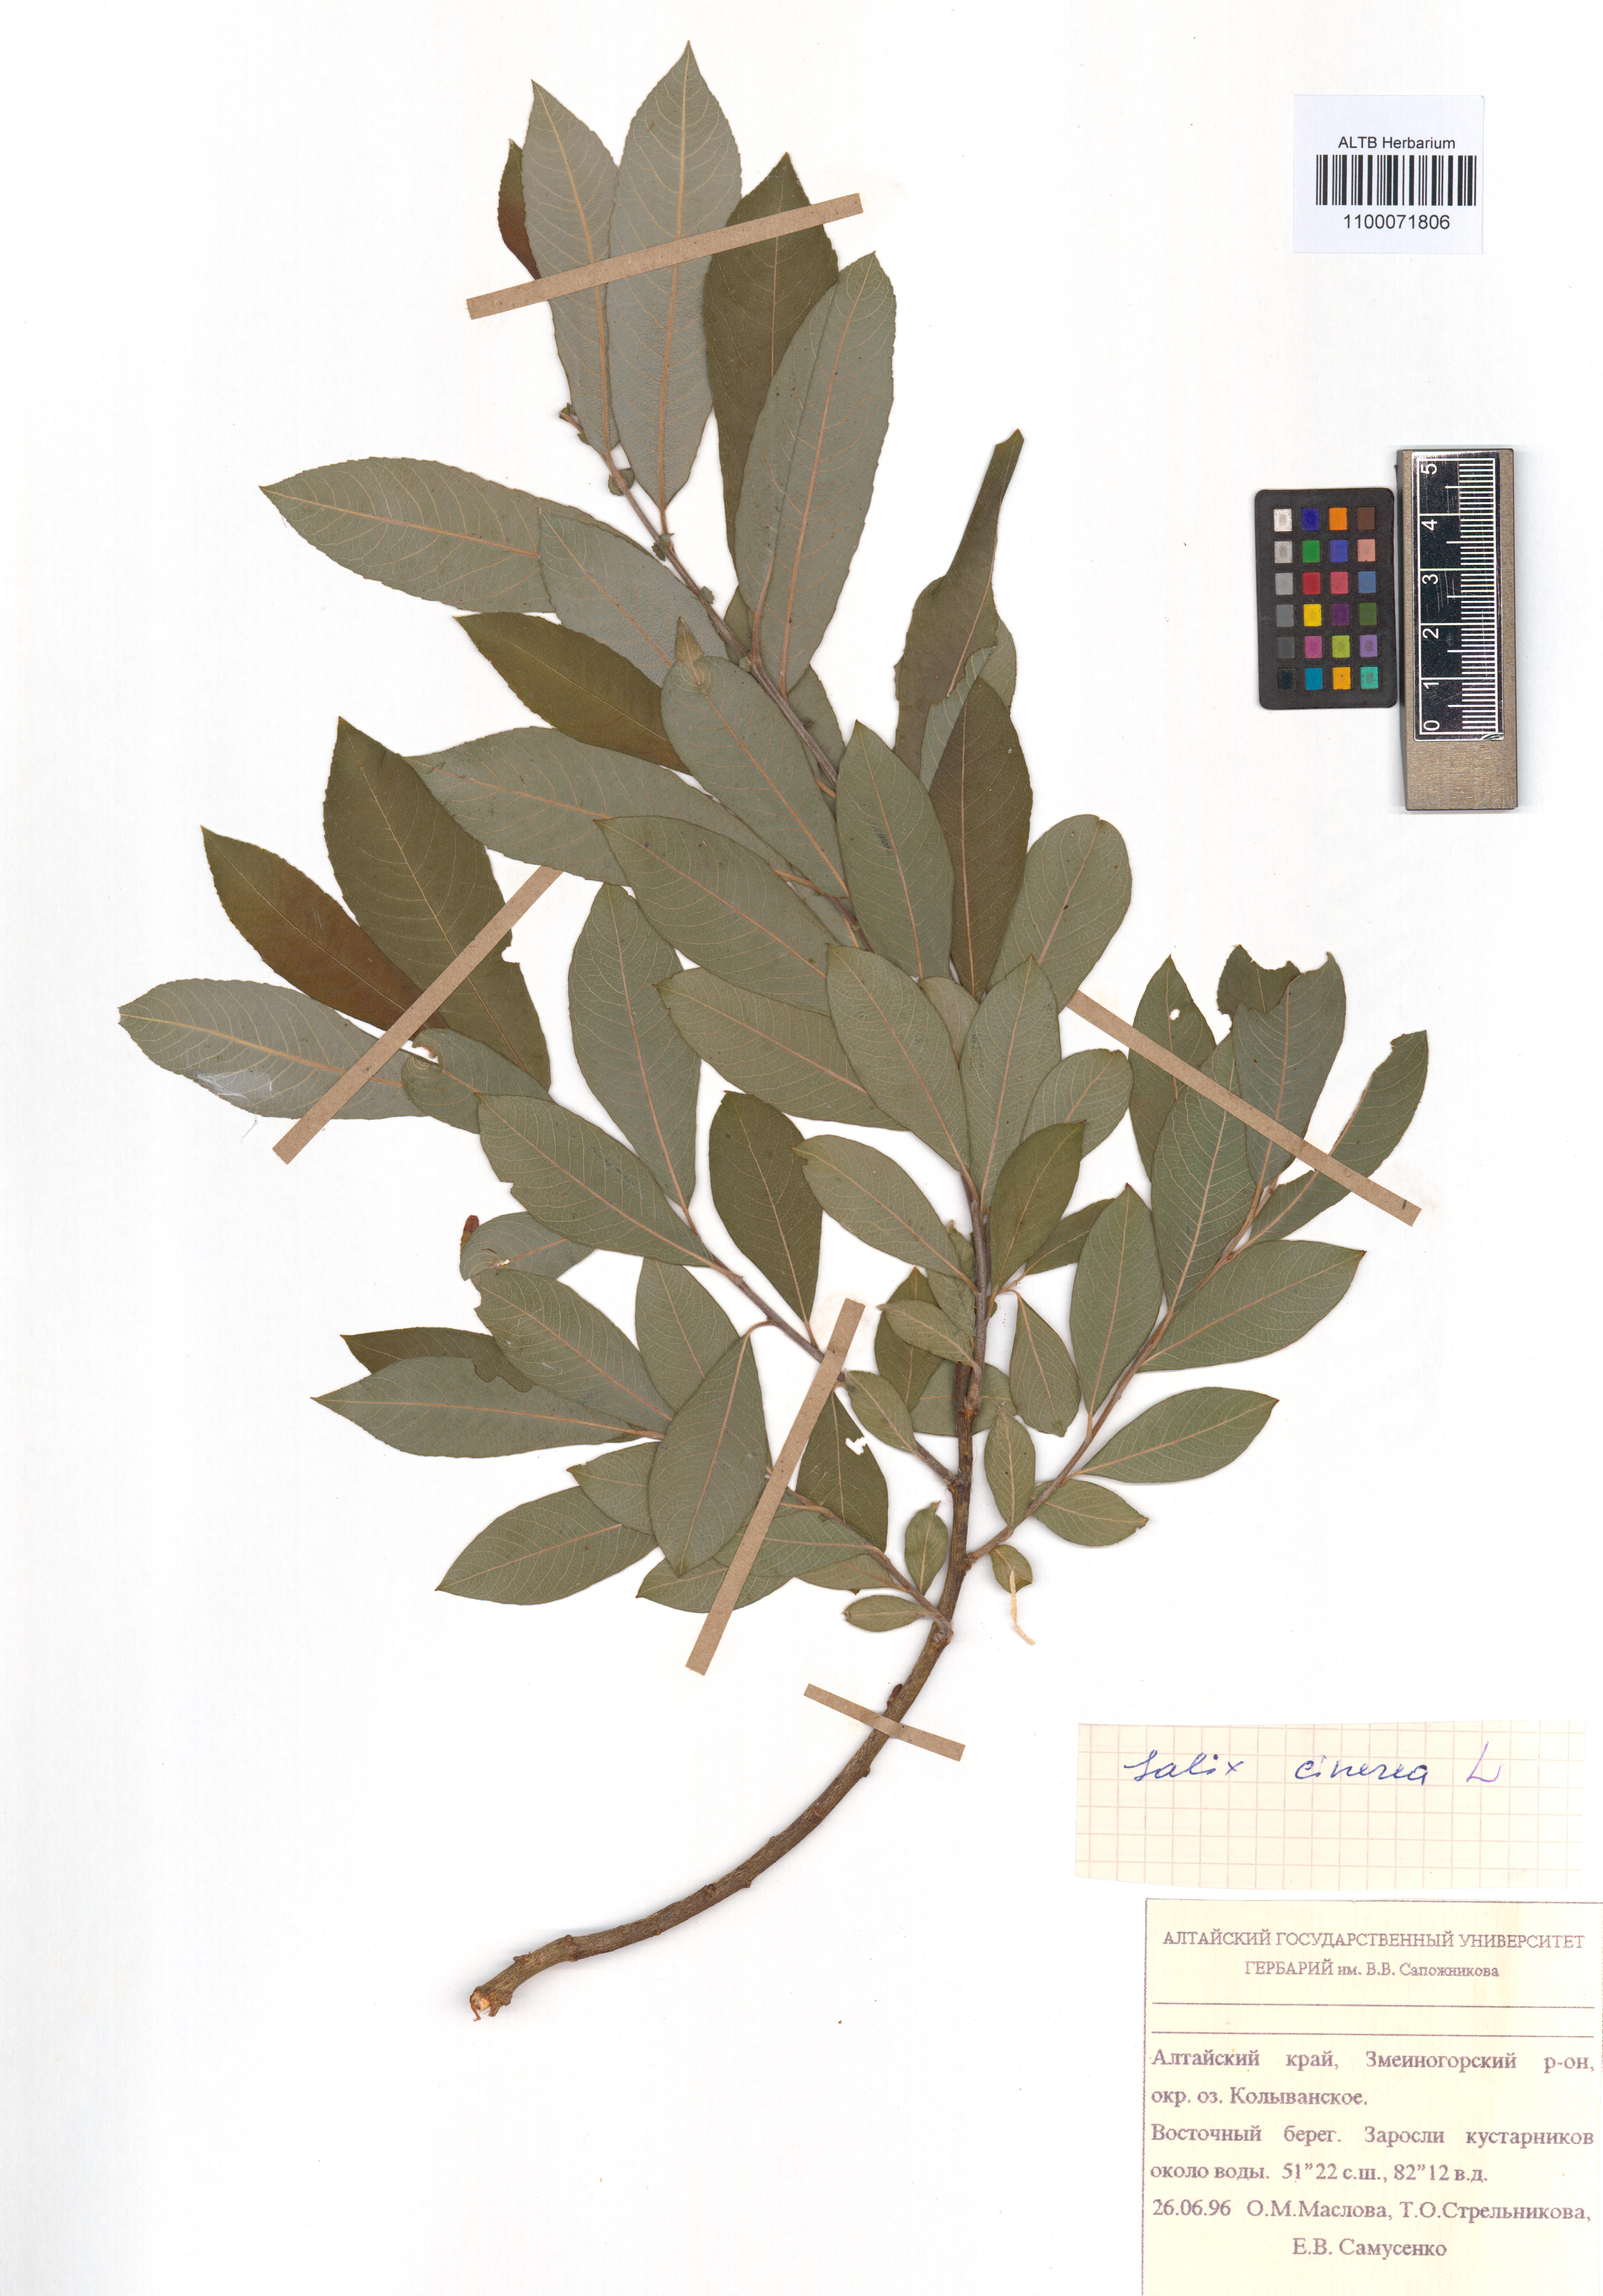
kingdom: Plantae
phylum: Tracheophyta
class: Magnoliopsida
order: Malpighiales
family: Salicaceae
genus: Salix
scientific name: Salix cinerea
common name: Common sallow
